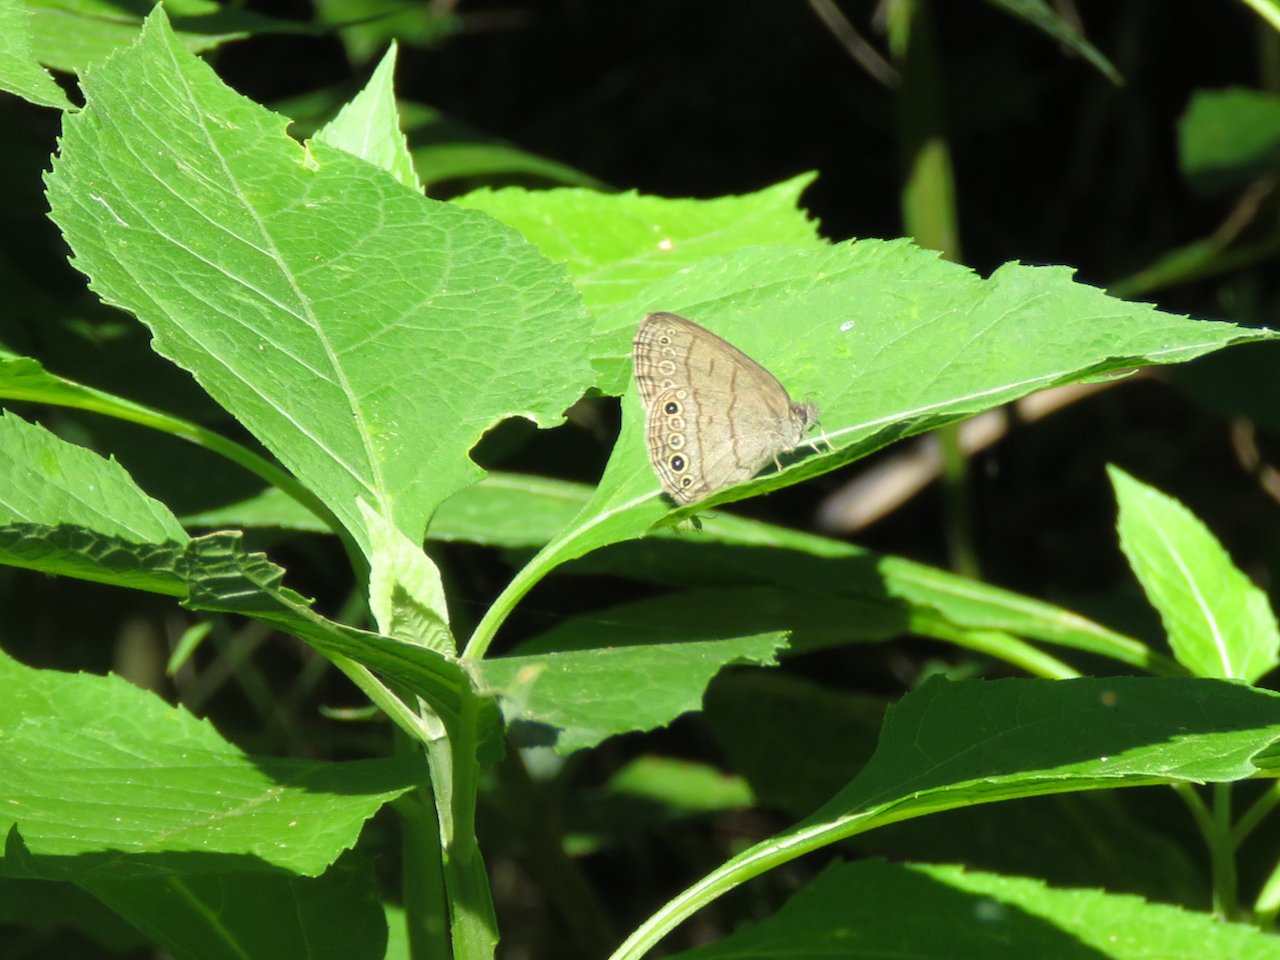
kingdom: Animalia
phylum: Arthropoda
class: Insecta
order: Lepidoptera
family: Nymphalidae
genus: Hermeuptychia
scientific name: Hermeuptychia hermes
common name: Carolina Satyr
